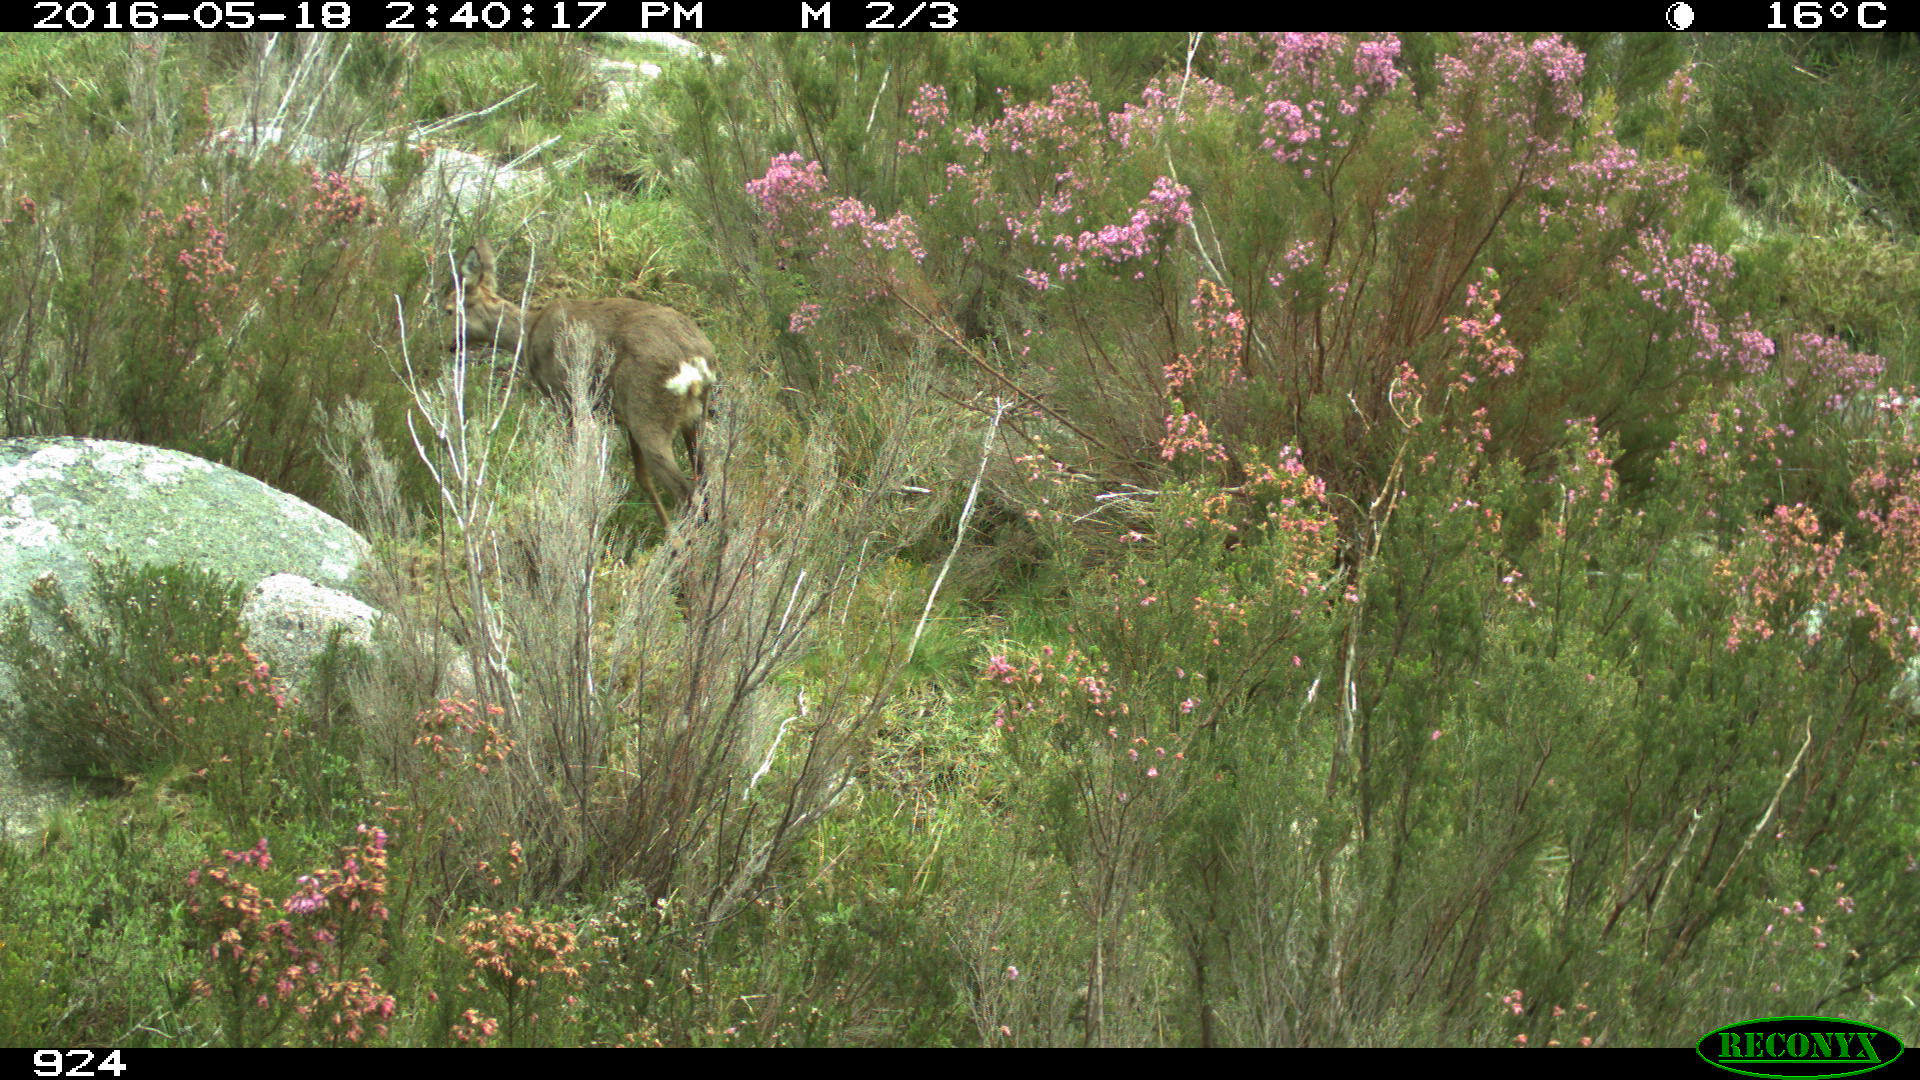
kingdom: Animalia
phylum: Chordata
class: Mammalia
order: Artiodactyla
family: Cervidae
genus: Capreolus
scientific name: Capreolus capreolus
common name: Western roe deer
